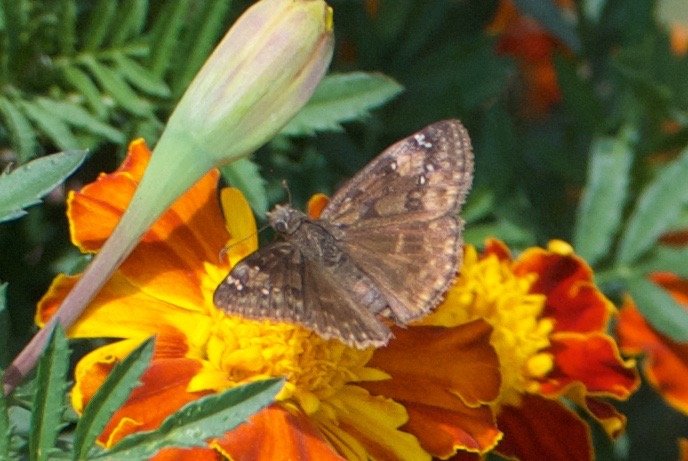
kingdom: Animalia
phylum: Arthropoda
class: Insecta
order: Lepidoptera
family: Hesperiidae
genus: Gesta
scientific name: Gesta
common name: Horace's Duskywing
